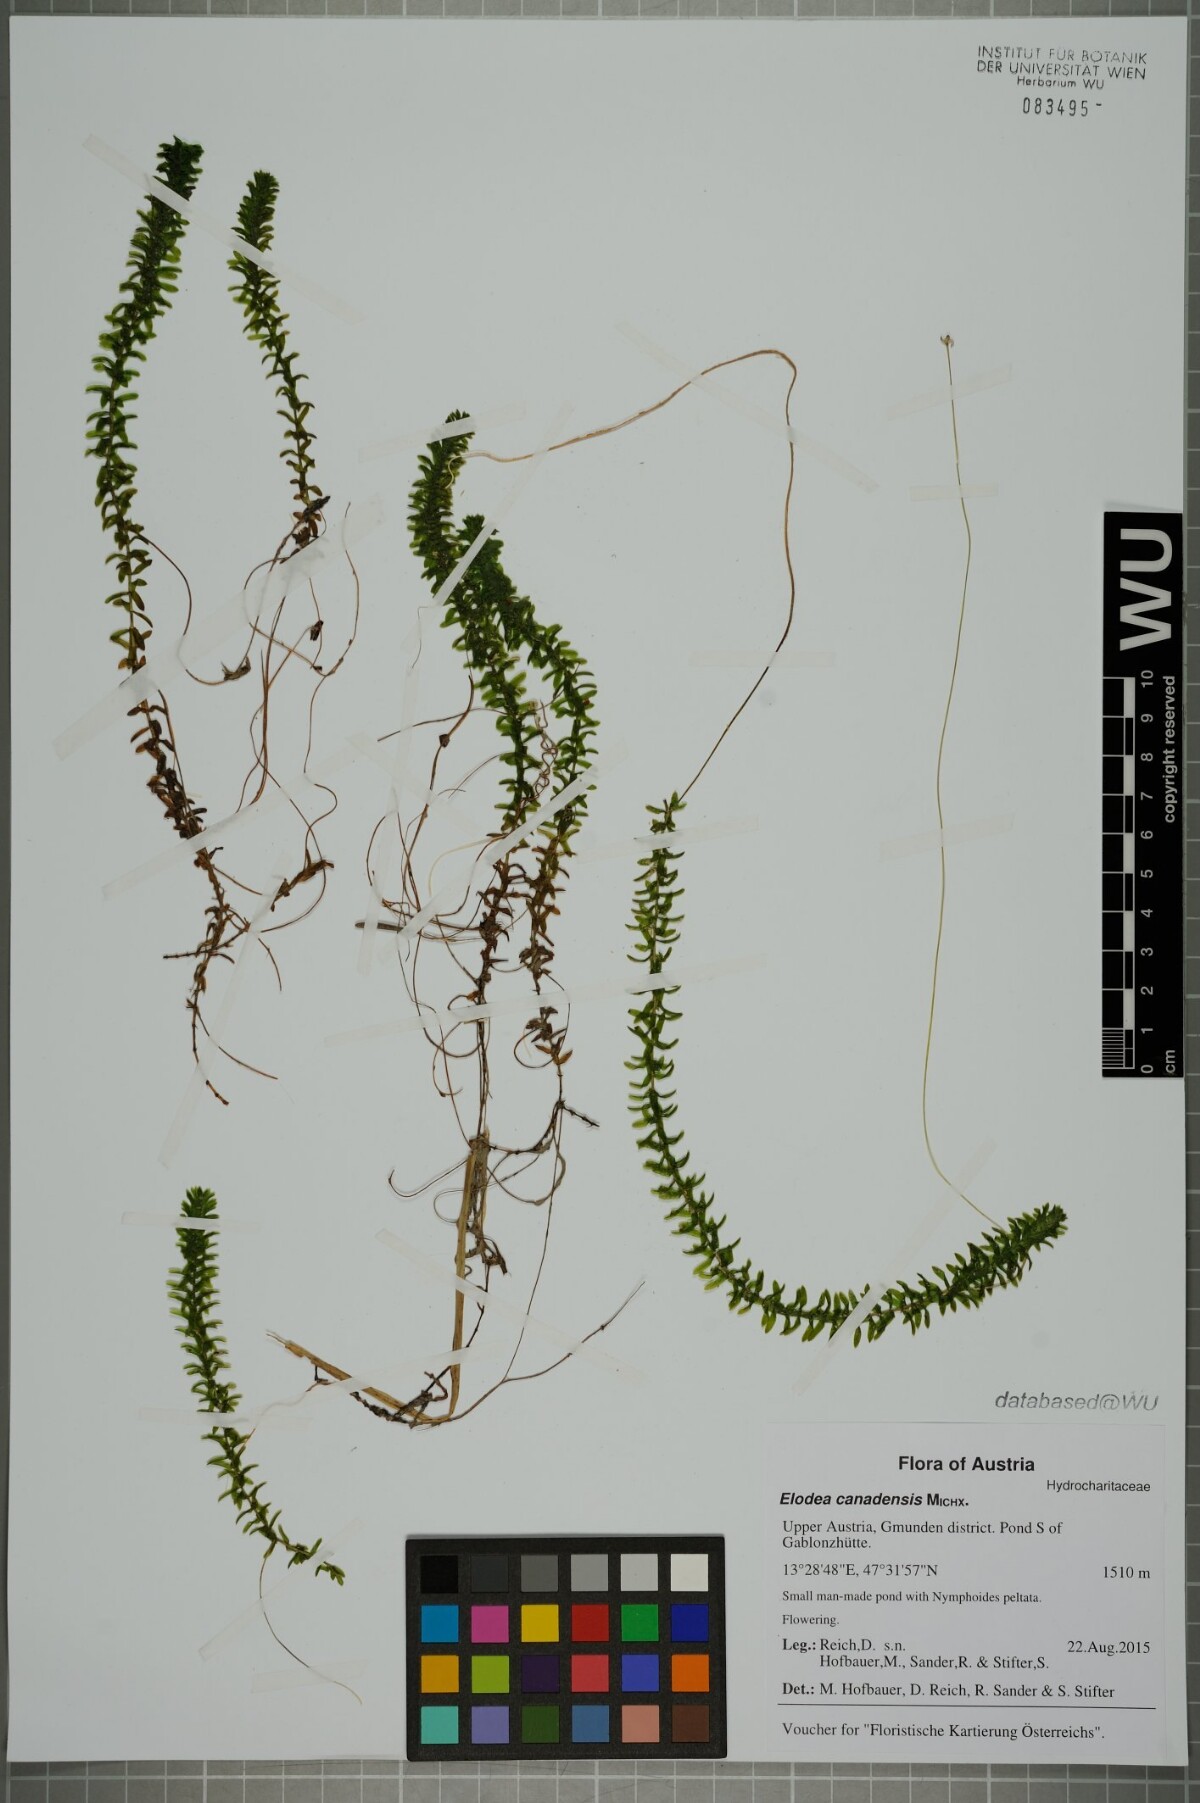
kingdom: Plantae
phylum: Tracheophyta
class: Liliopsida
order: Alismatales
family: Hydrocharitaceae
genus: Elodea
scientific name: Elodea canadensis
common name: Canadian waterweed
